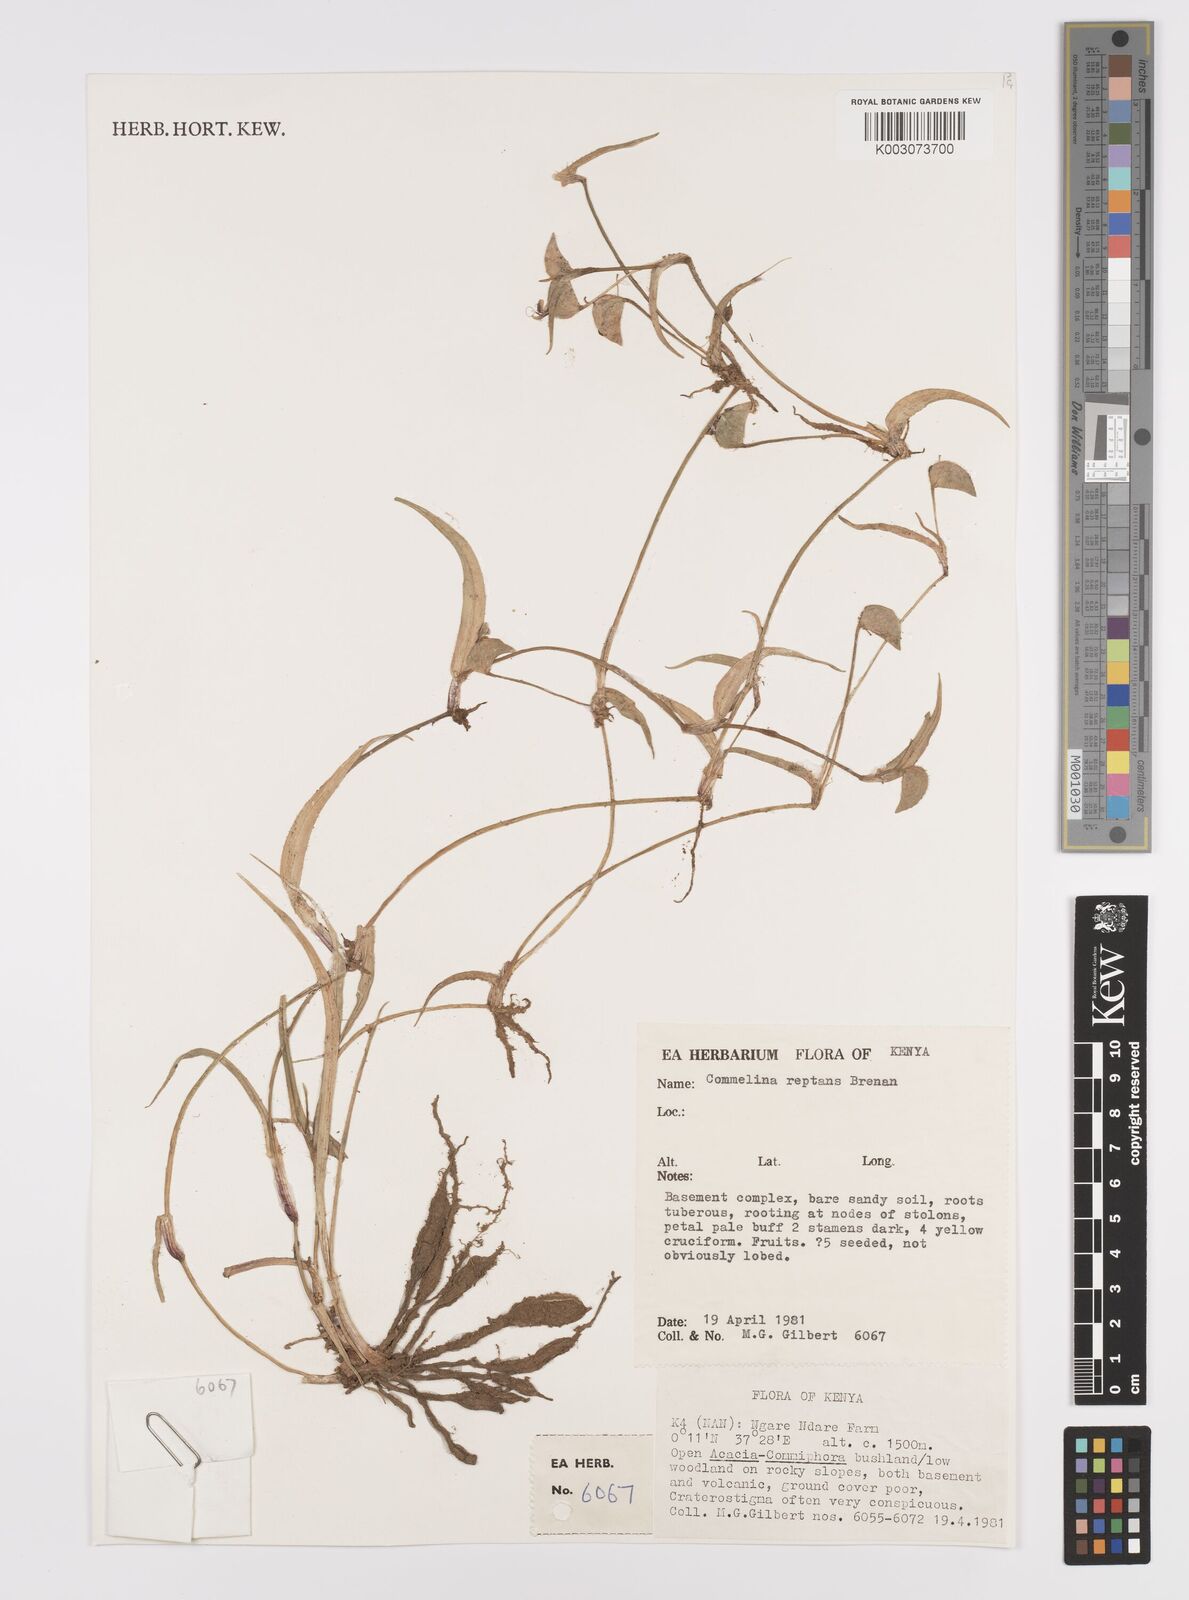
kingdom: Plantae
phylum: Tracheophyta
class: Liliopsida
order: Commelinales
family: Commelinaceae
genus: Commelina
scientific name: Commelina reptans
